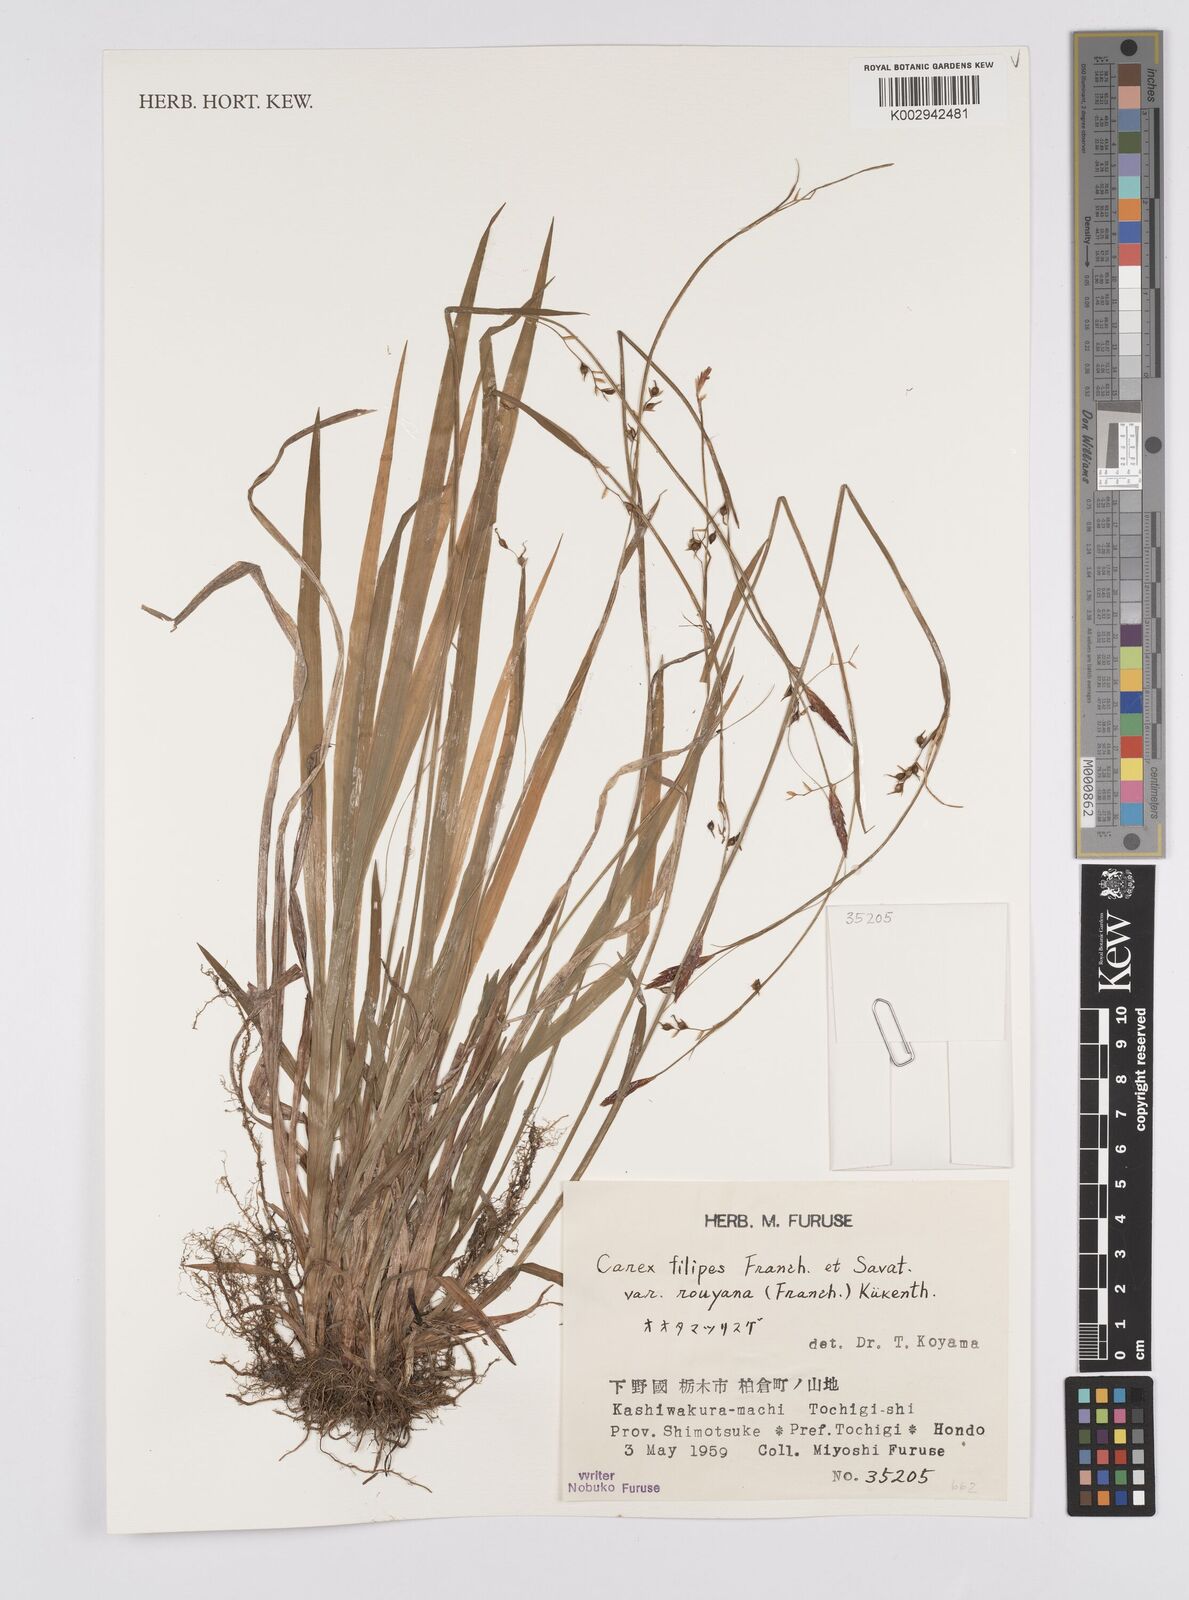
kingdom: Plantae
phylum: Tracheophyta
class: Liliopsida
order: Poales
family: Cyperaceae
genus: Carex
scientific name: Carex filipes
